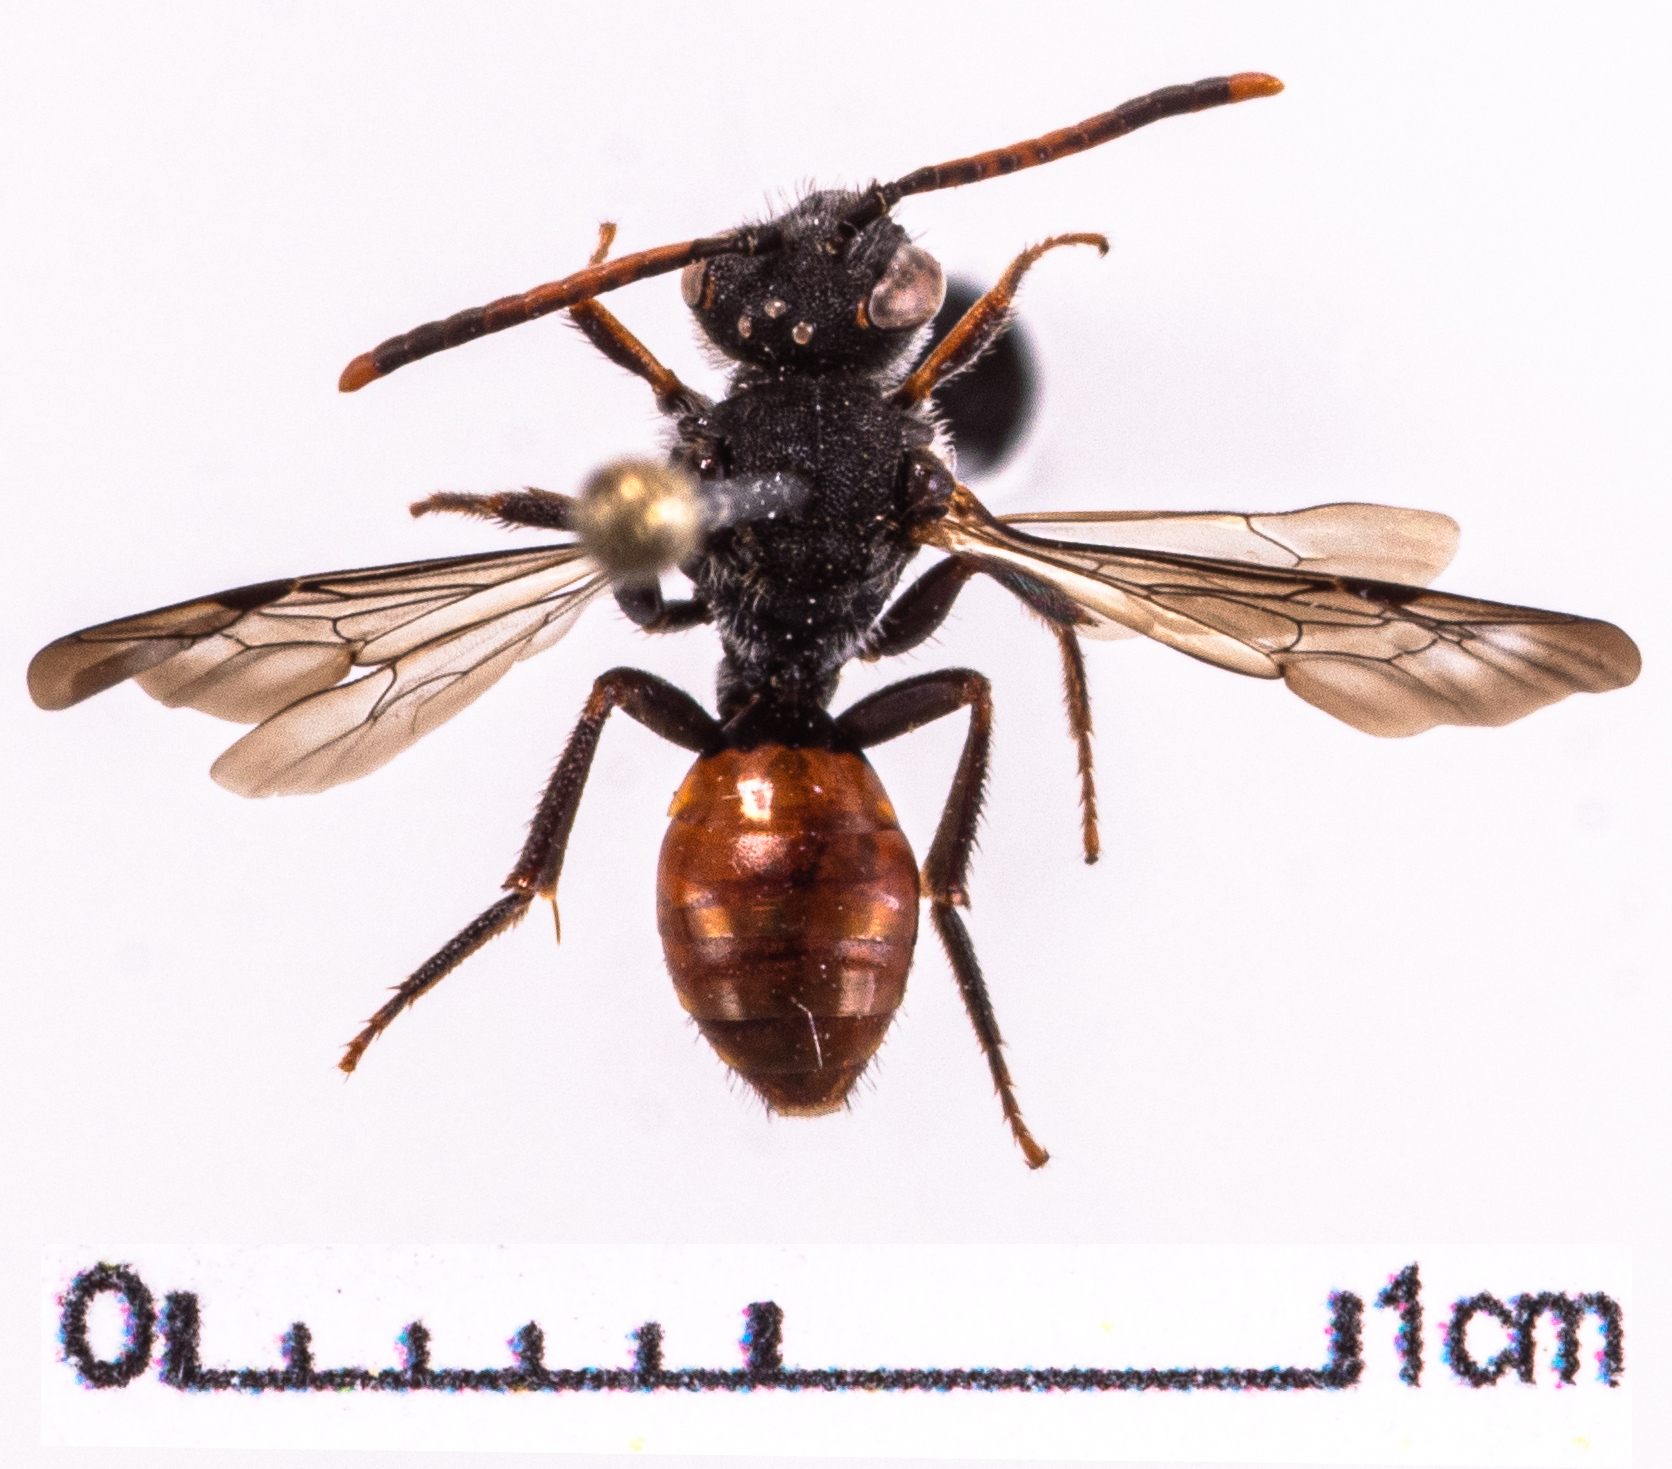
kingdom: Animalia
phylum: Arthropoda
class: Insecta
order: Hymenoptera
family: Apidae
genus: Nomada
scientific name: Nomada fabriciana
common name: Fabricius' nomad bee
